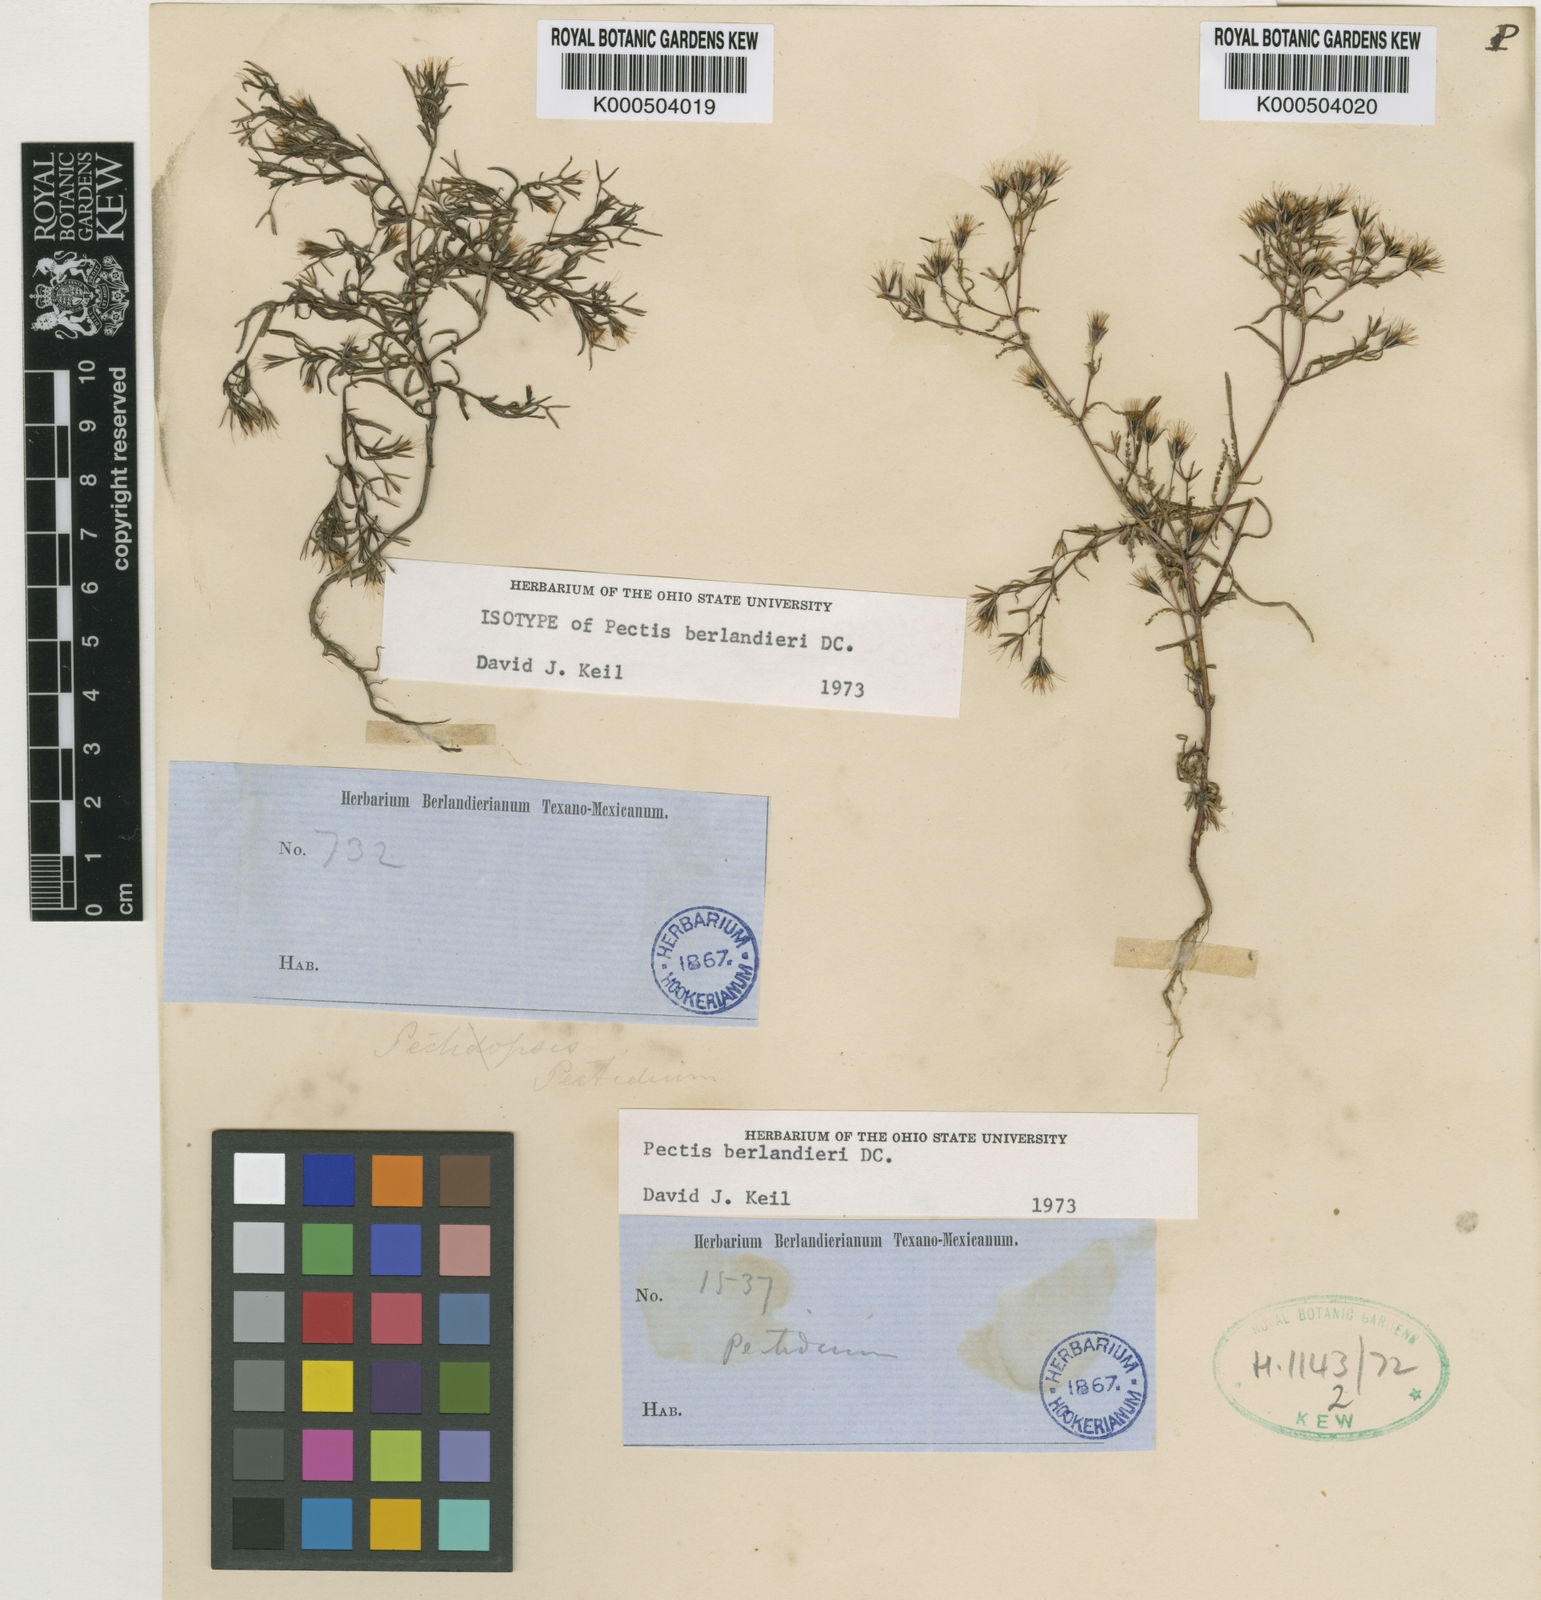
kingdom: Plantae
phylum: Tracheophyta
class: Magnoliopsida
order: Asterales
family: Asteraceae
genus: Pectis
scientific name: Pectis angustifolia
